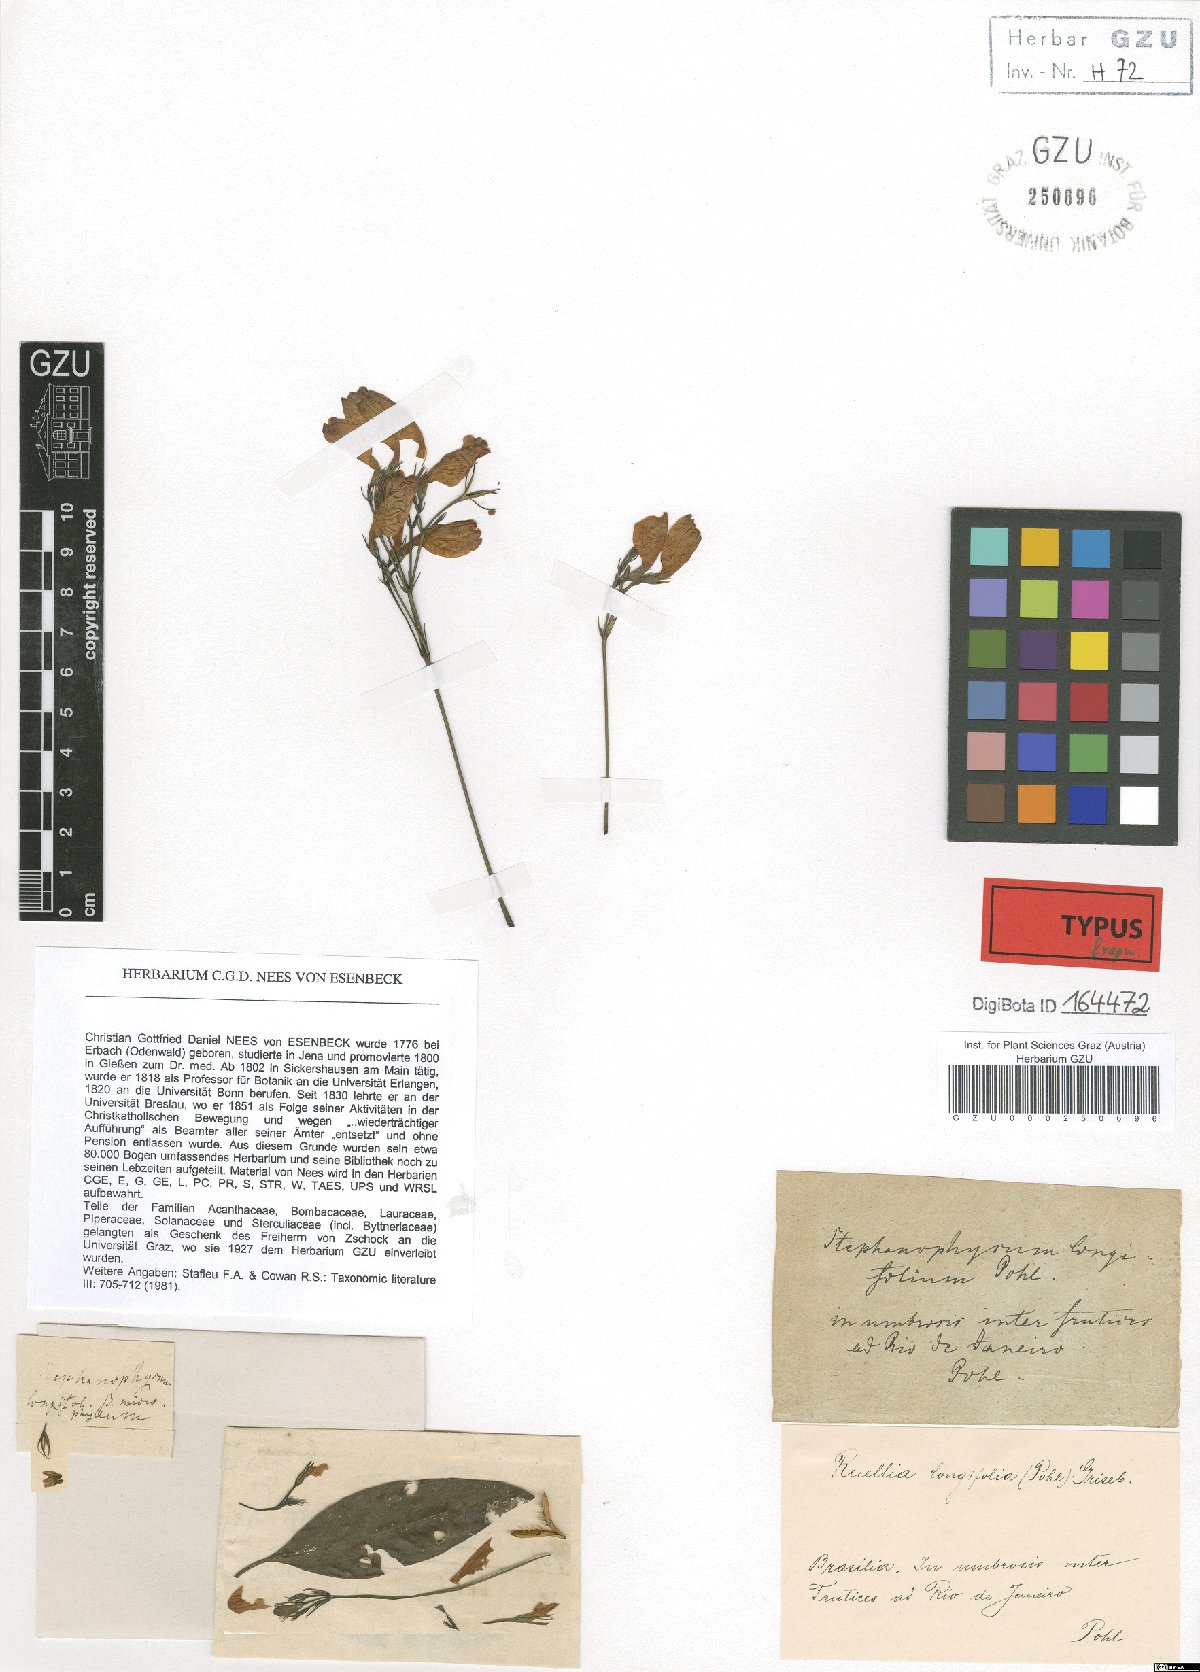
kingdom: Plantae
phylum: Tracheophyta
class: Magnoliopsida
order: Lamiales
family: Acanthaceae
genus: Ruellia
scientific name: Ruellia brevifolia
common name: Tropical wild petunia
